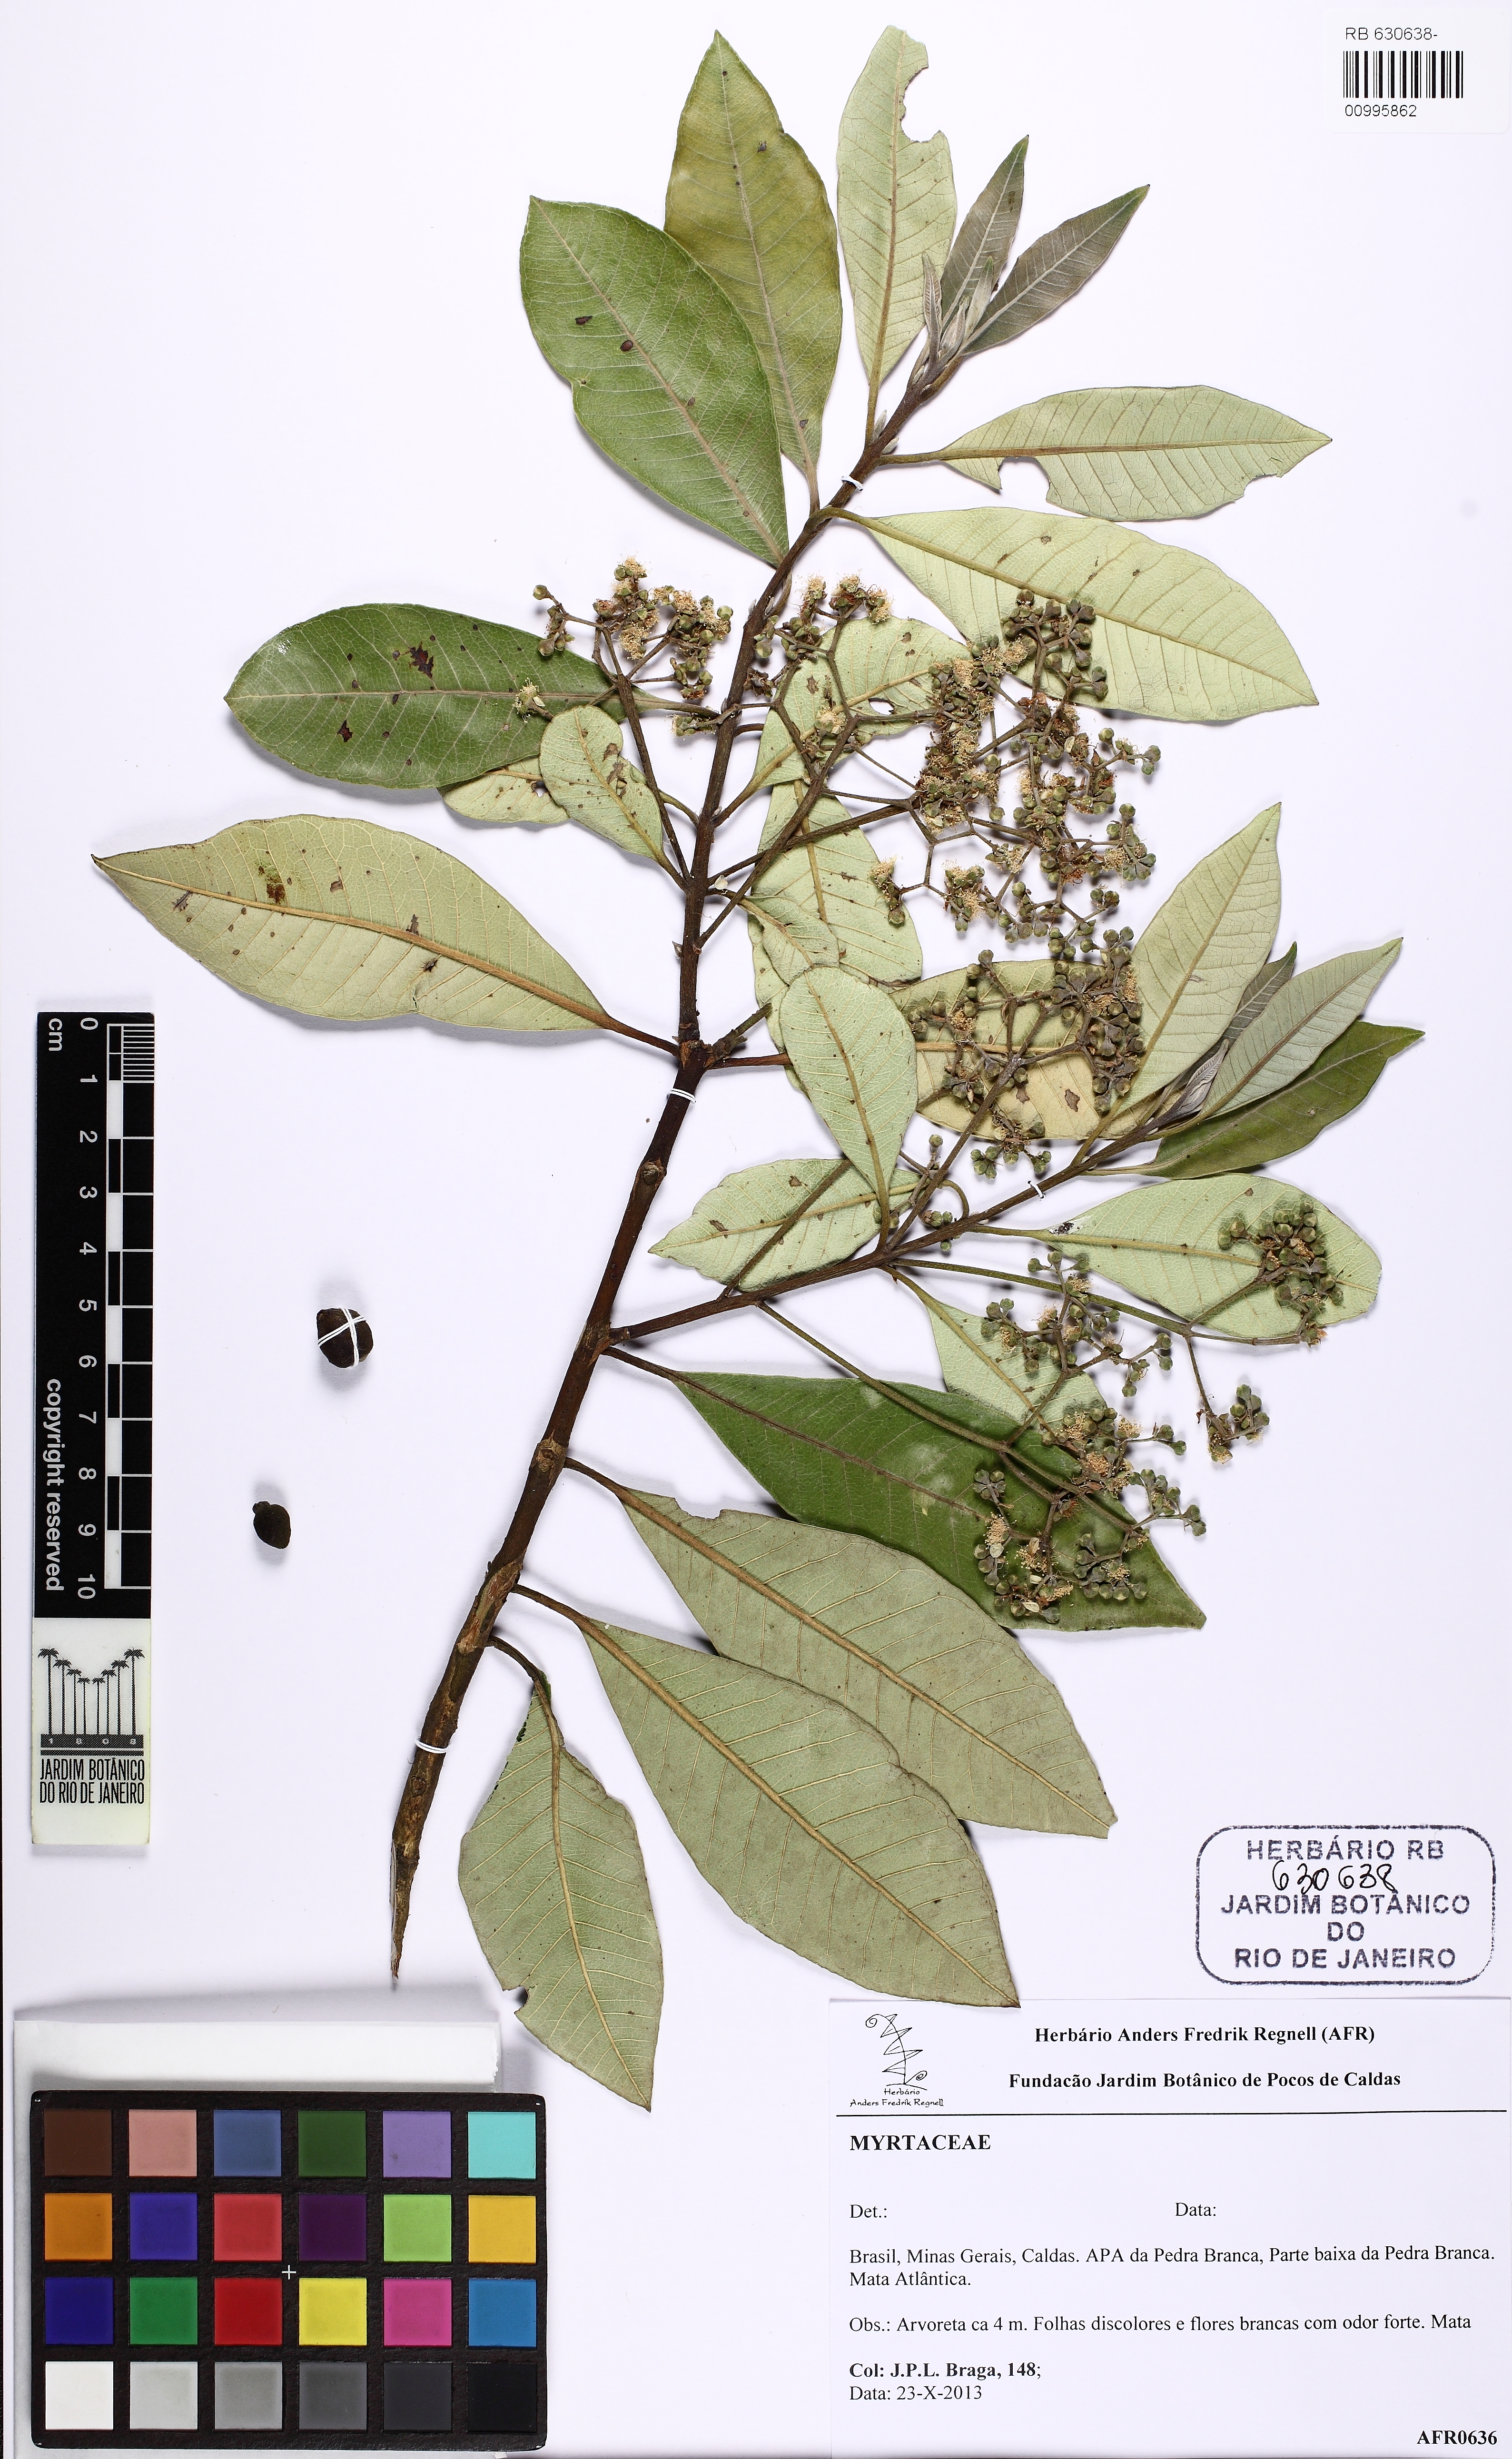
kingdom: Plantae
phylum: Tracheophyta
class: Magnoliopsida
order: Myrtales
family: Myrtaceae
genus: Pimenta
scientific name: Pimenta pseudocaryophyllus
